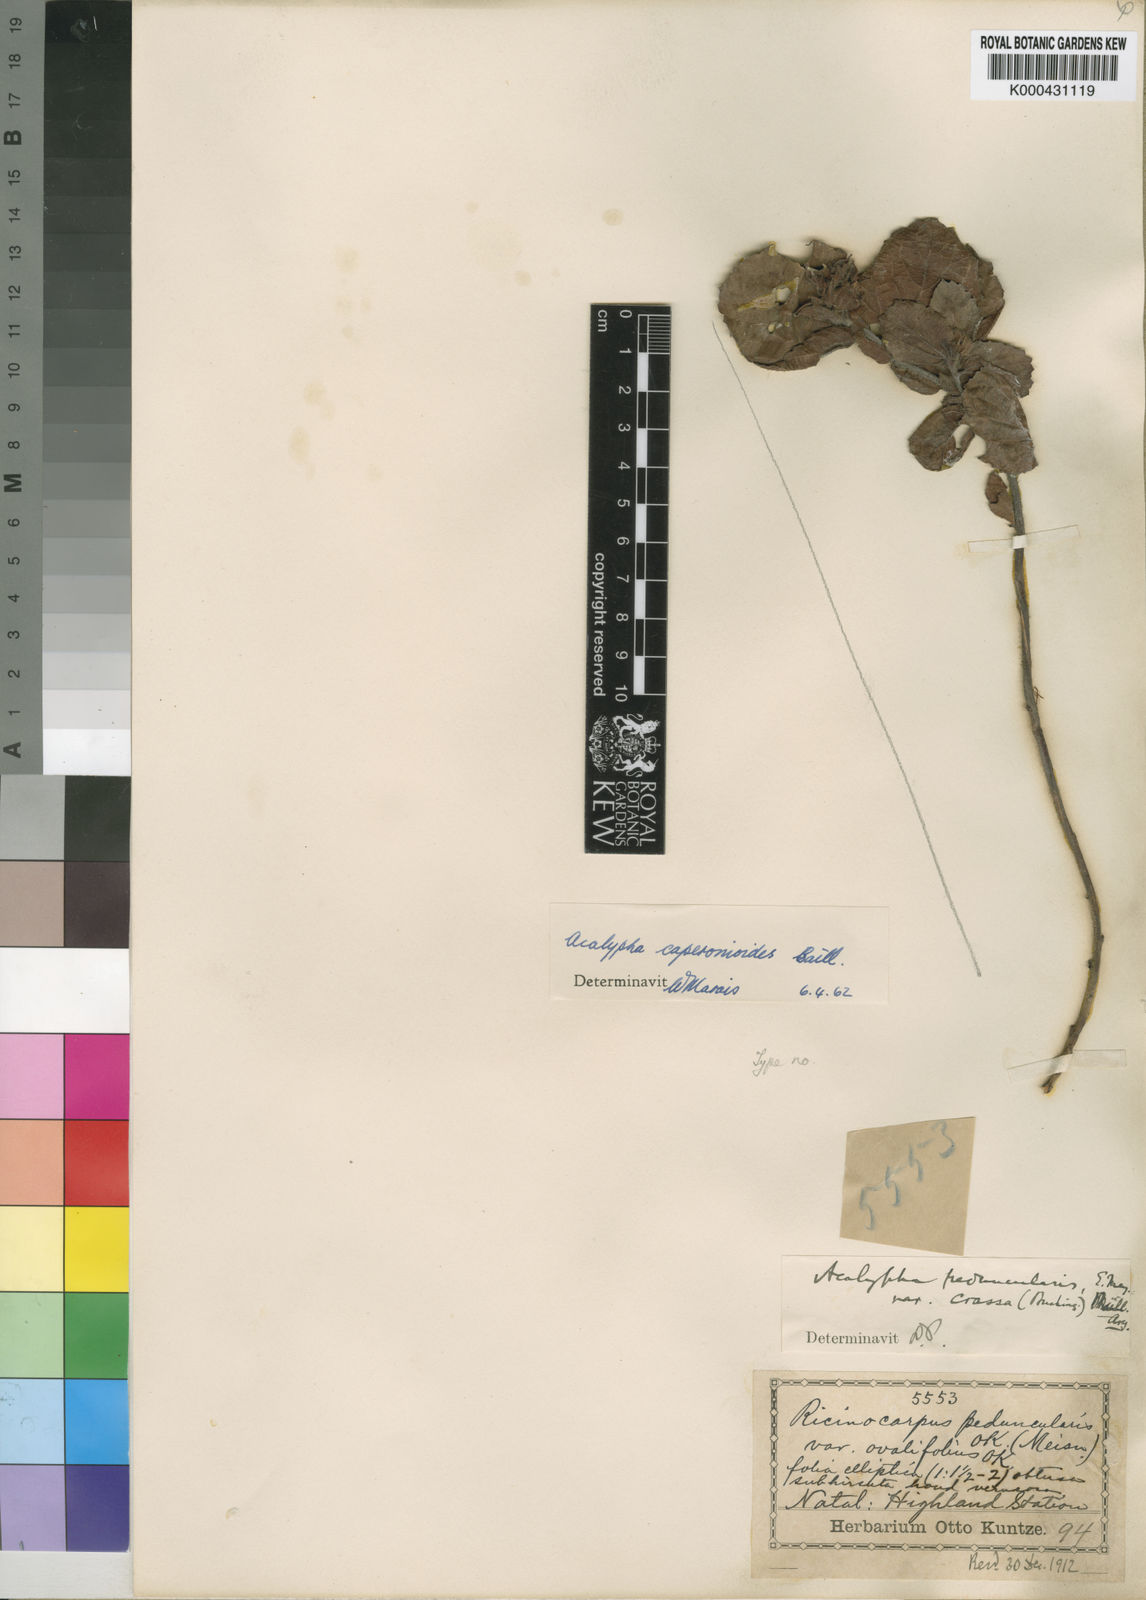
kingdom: Plantae
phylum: Tracheophyta
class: Magnoliopsida
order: Malpighiales
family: Euphorbiaceae
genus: Acalypha
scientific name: Acalypha caperonioides
